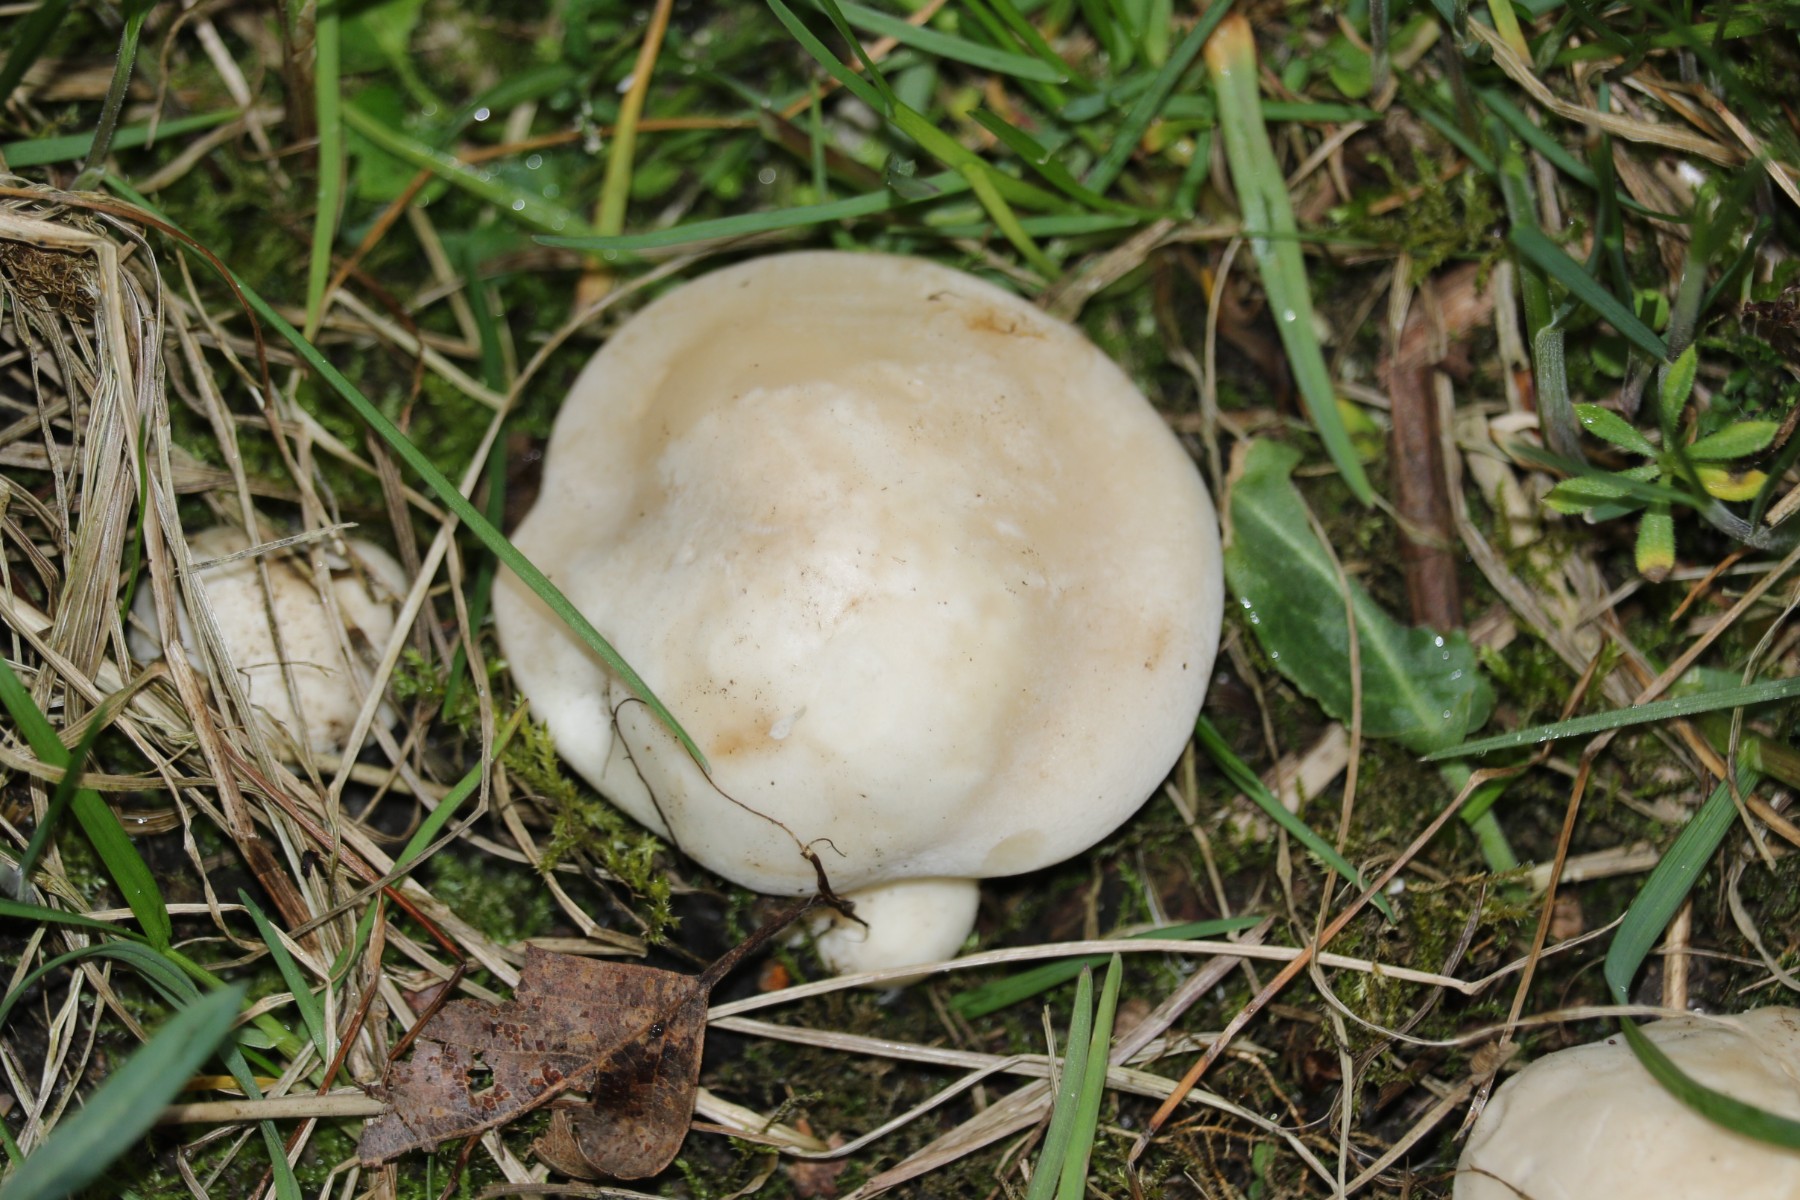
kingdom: Fungi
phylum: Basidiomycota
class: Agaricomycetes
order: Agaricales
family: Lyophyllaceae
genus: Calocybe
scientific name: Calocybe gambosa
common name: vårmusseron
